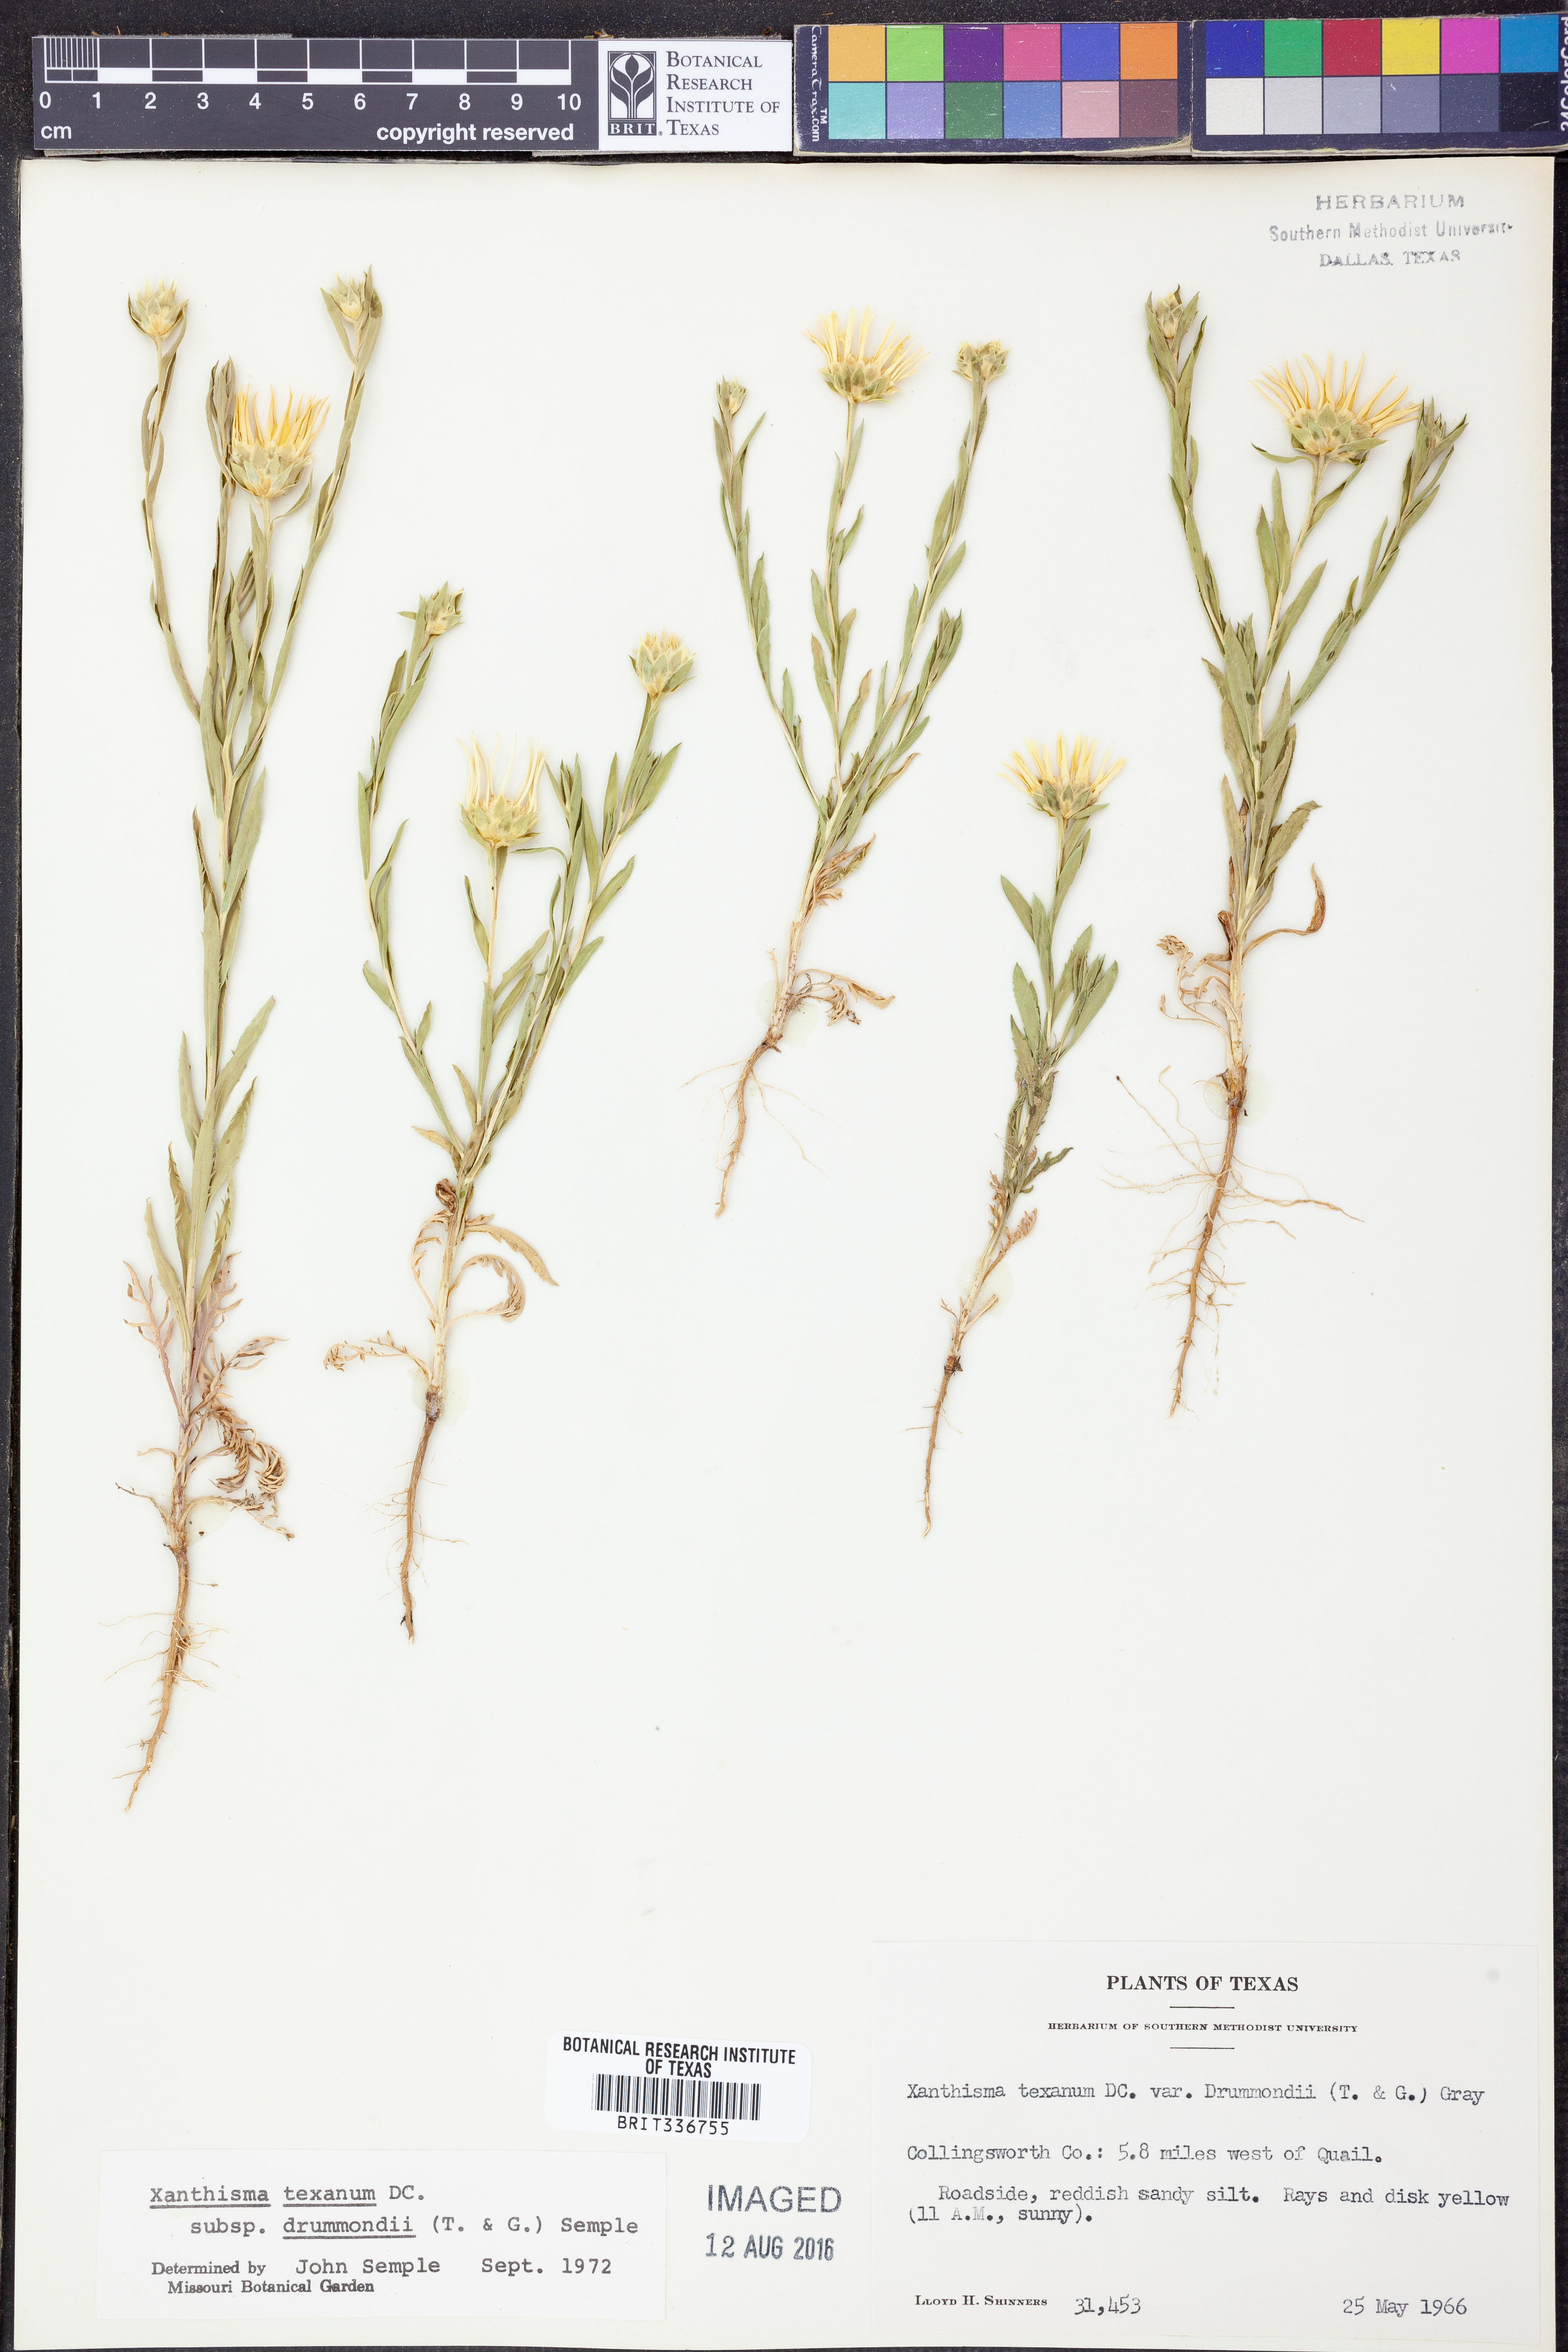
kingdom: Plantae
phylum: Tracheophyta
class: Magnoliopsida
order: Asterales
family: Asteraceae
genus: Xanthisma
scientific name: Xanthisma texanum
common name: Texas sleepy daisy
